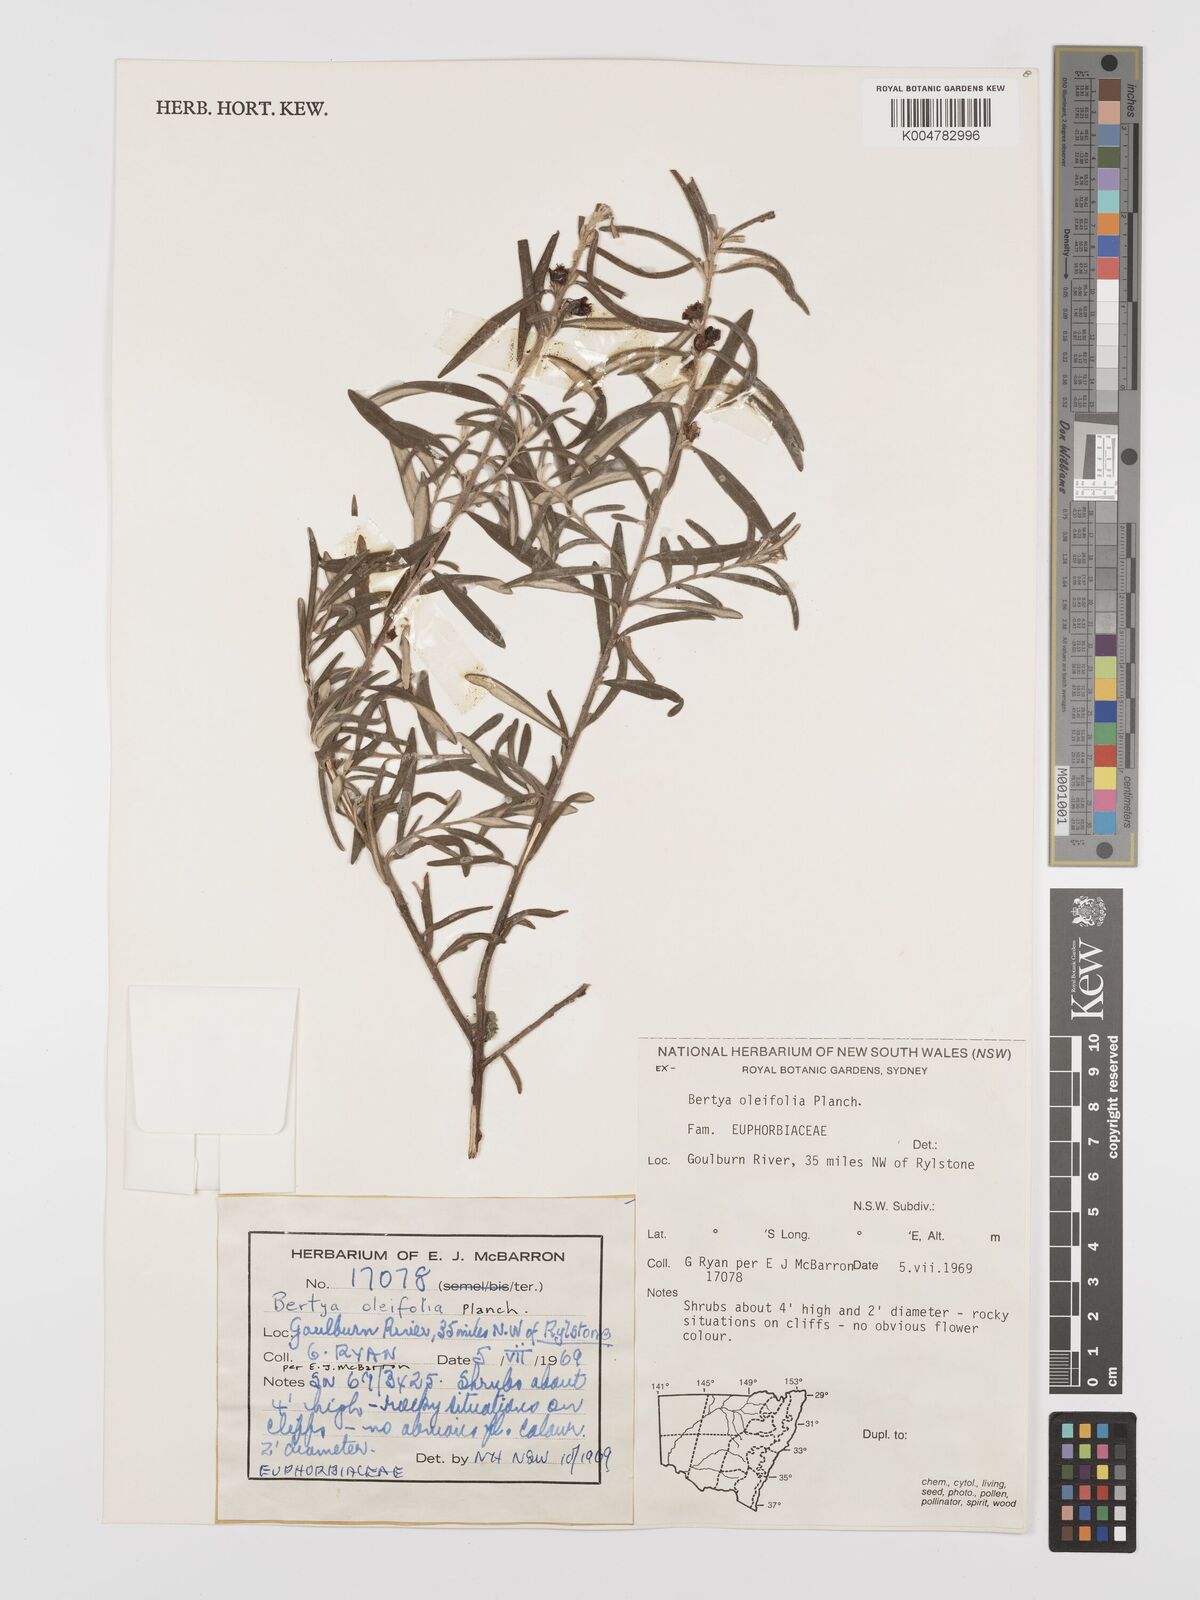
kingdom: Plantae
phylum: Tracheophyta
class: Magnoliopsida
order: Malpighiales
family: Euphorbiaceae
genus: Bertya
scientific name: Bertya oleifolia
